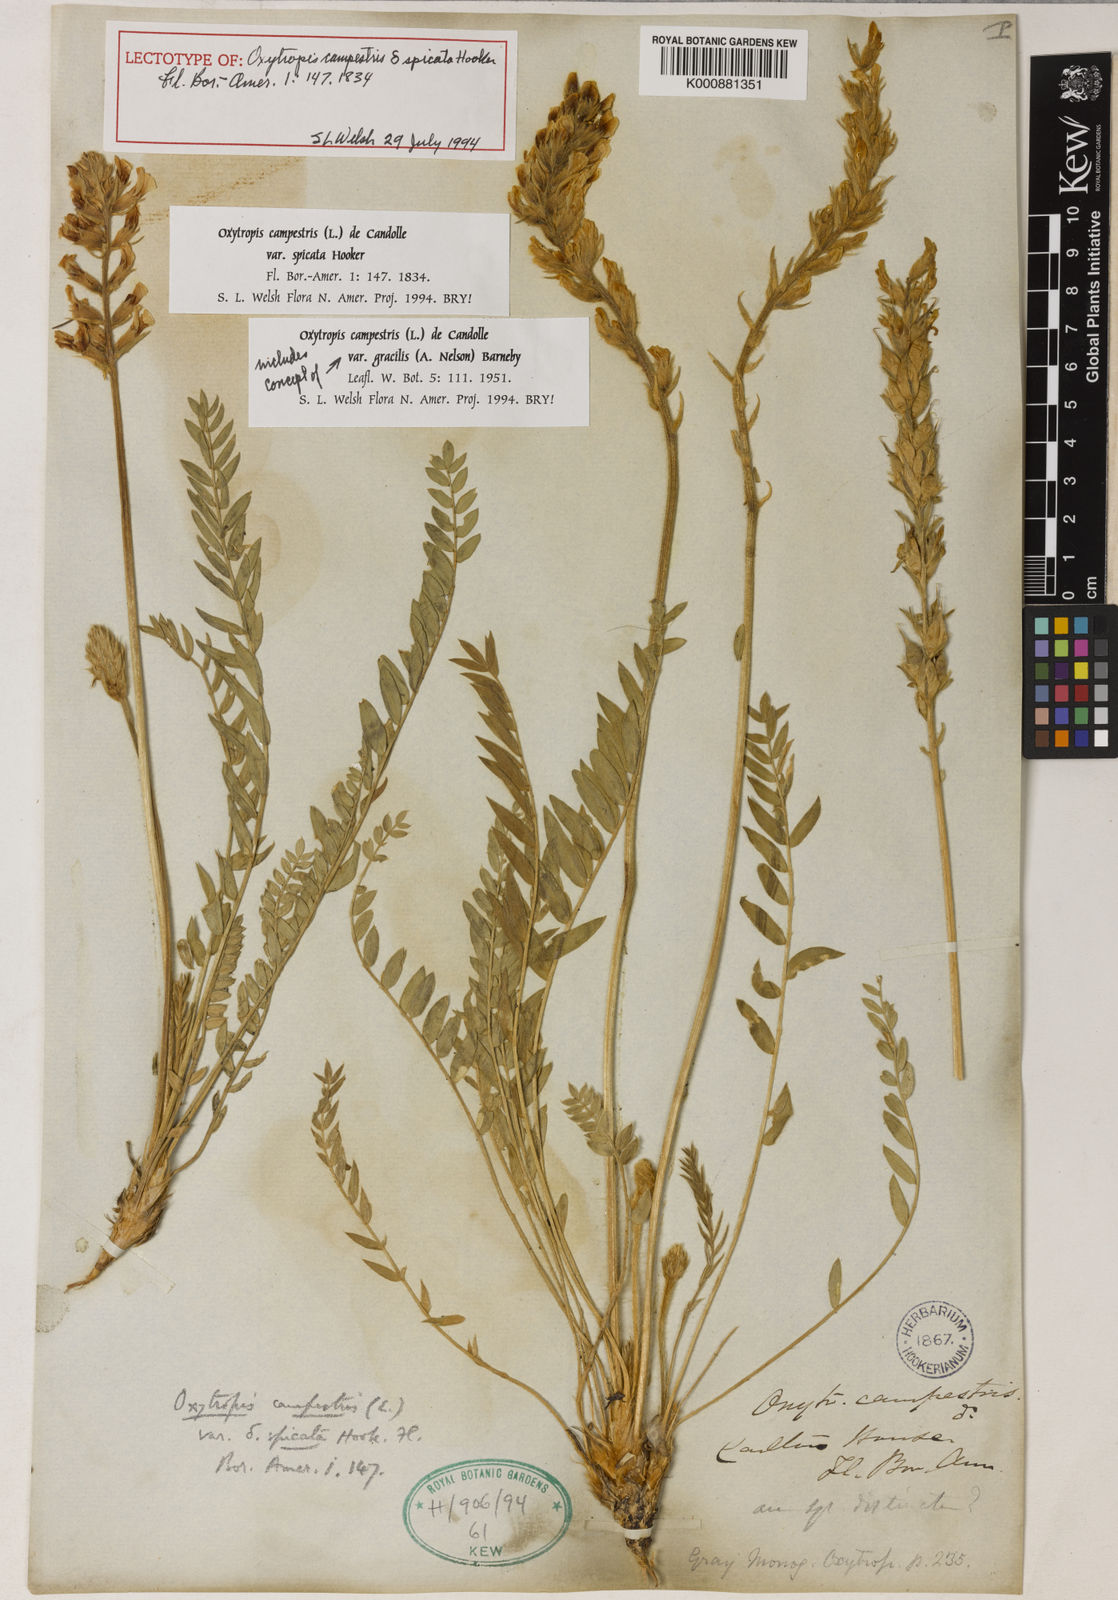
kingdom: Plantae
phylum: Tracheophyta
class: Magnoliopsida
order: Fabales
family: Fabaceae
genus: Oxytropis
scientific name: Oxytropis campestris
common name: Field locoweed
